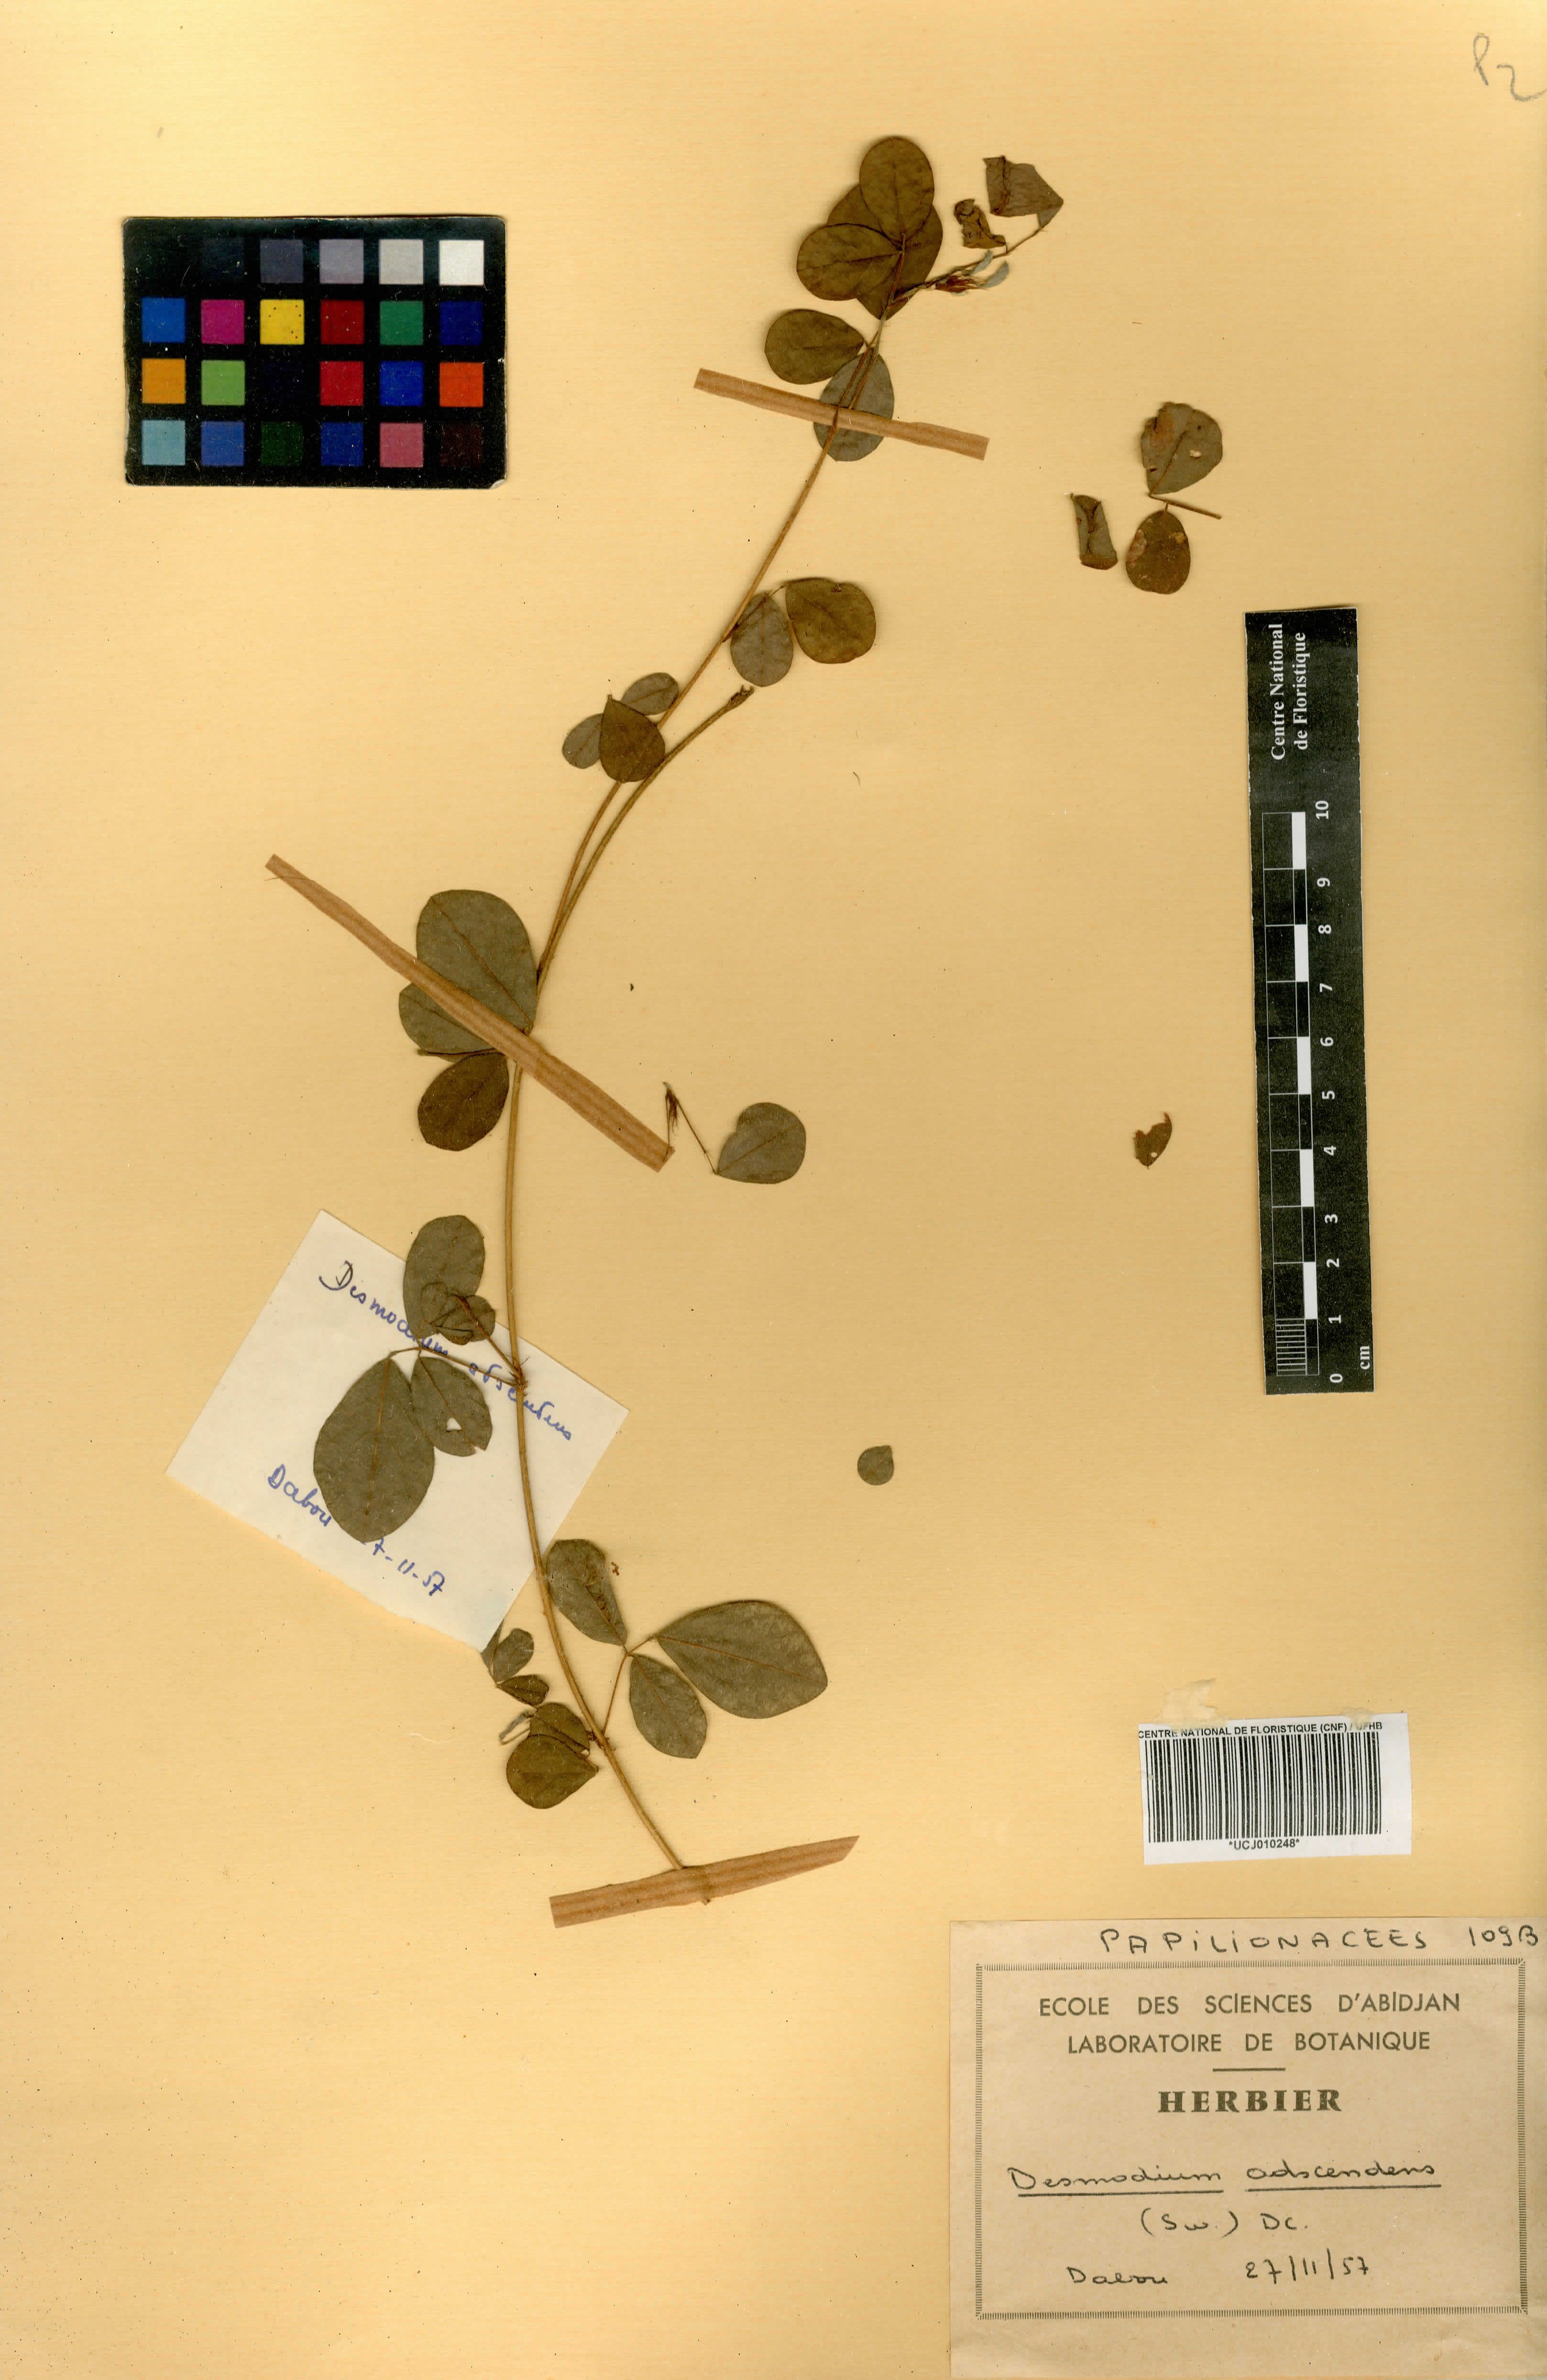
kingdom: Plantae
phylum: Tracheophyta
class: Magnoliopsida
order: Fabales
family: Fabaceae
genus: Grona
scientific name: Grona adscendens
